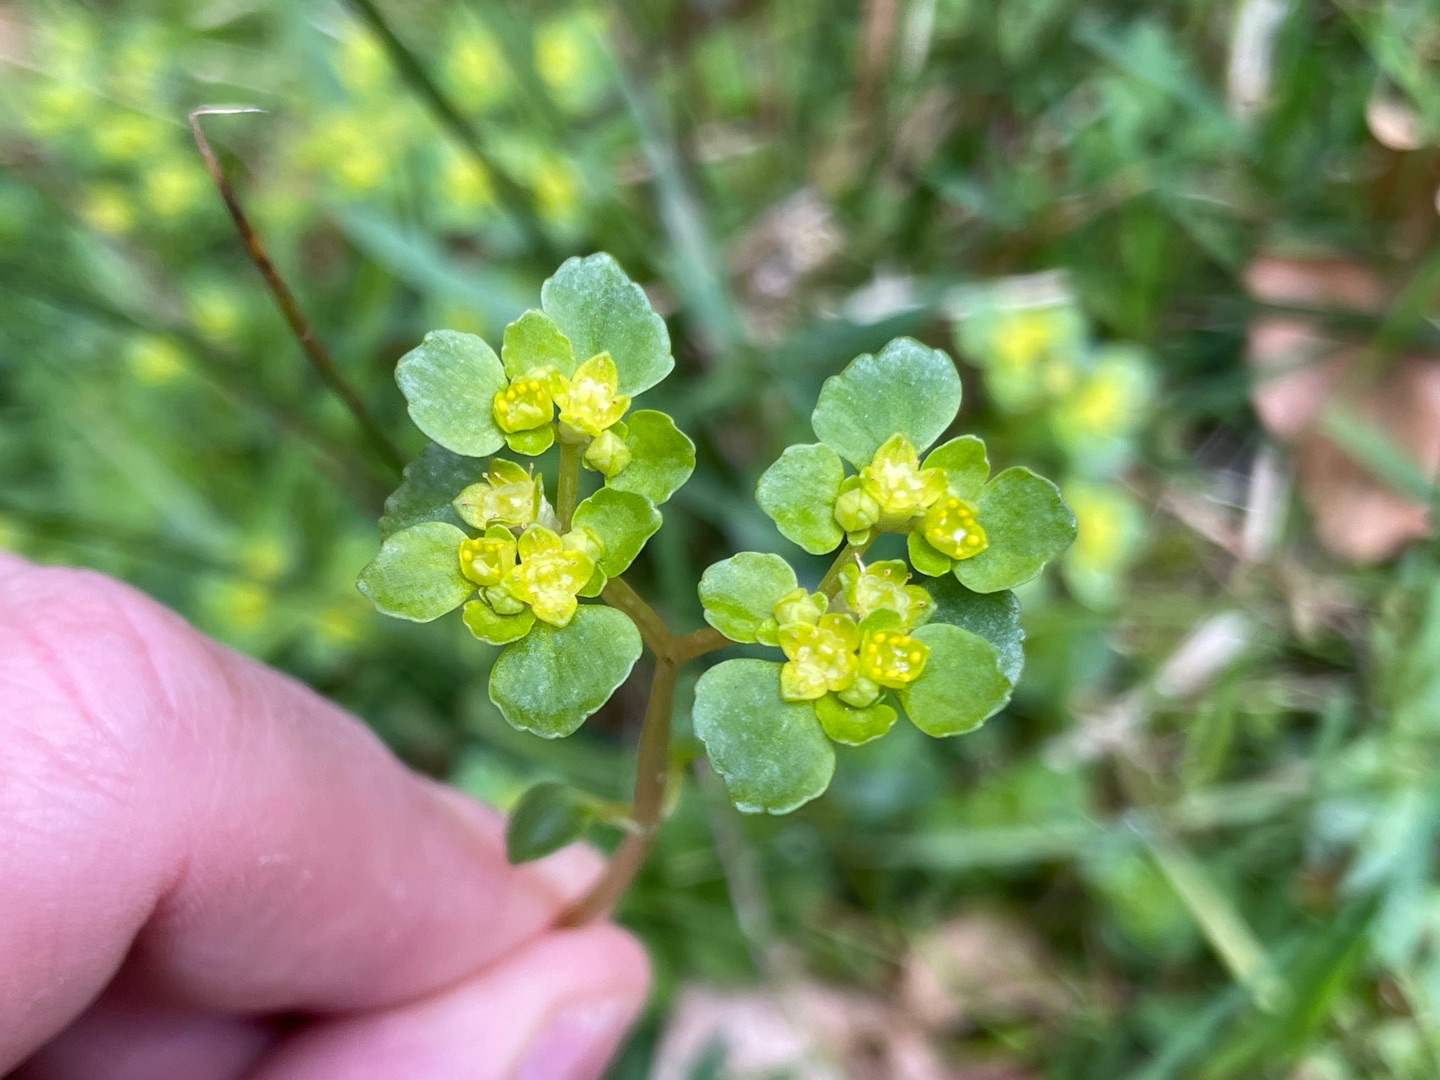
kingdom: Plantae
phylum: Tracheophyta
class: Magnoliopsida
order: Saxifragales
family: Saxifragaceae
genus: Chrysosplenium
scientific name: Chrysosplenium oppositifolium
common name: Småbladet milturt
